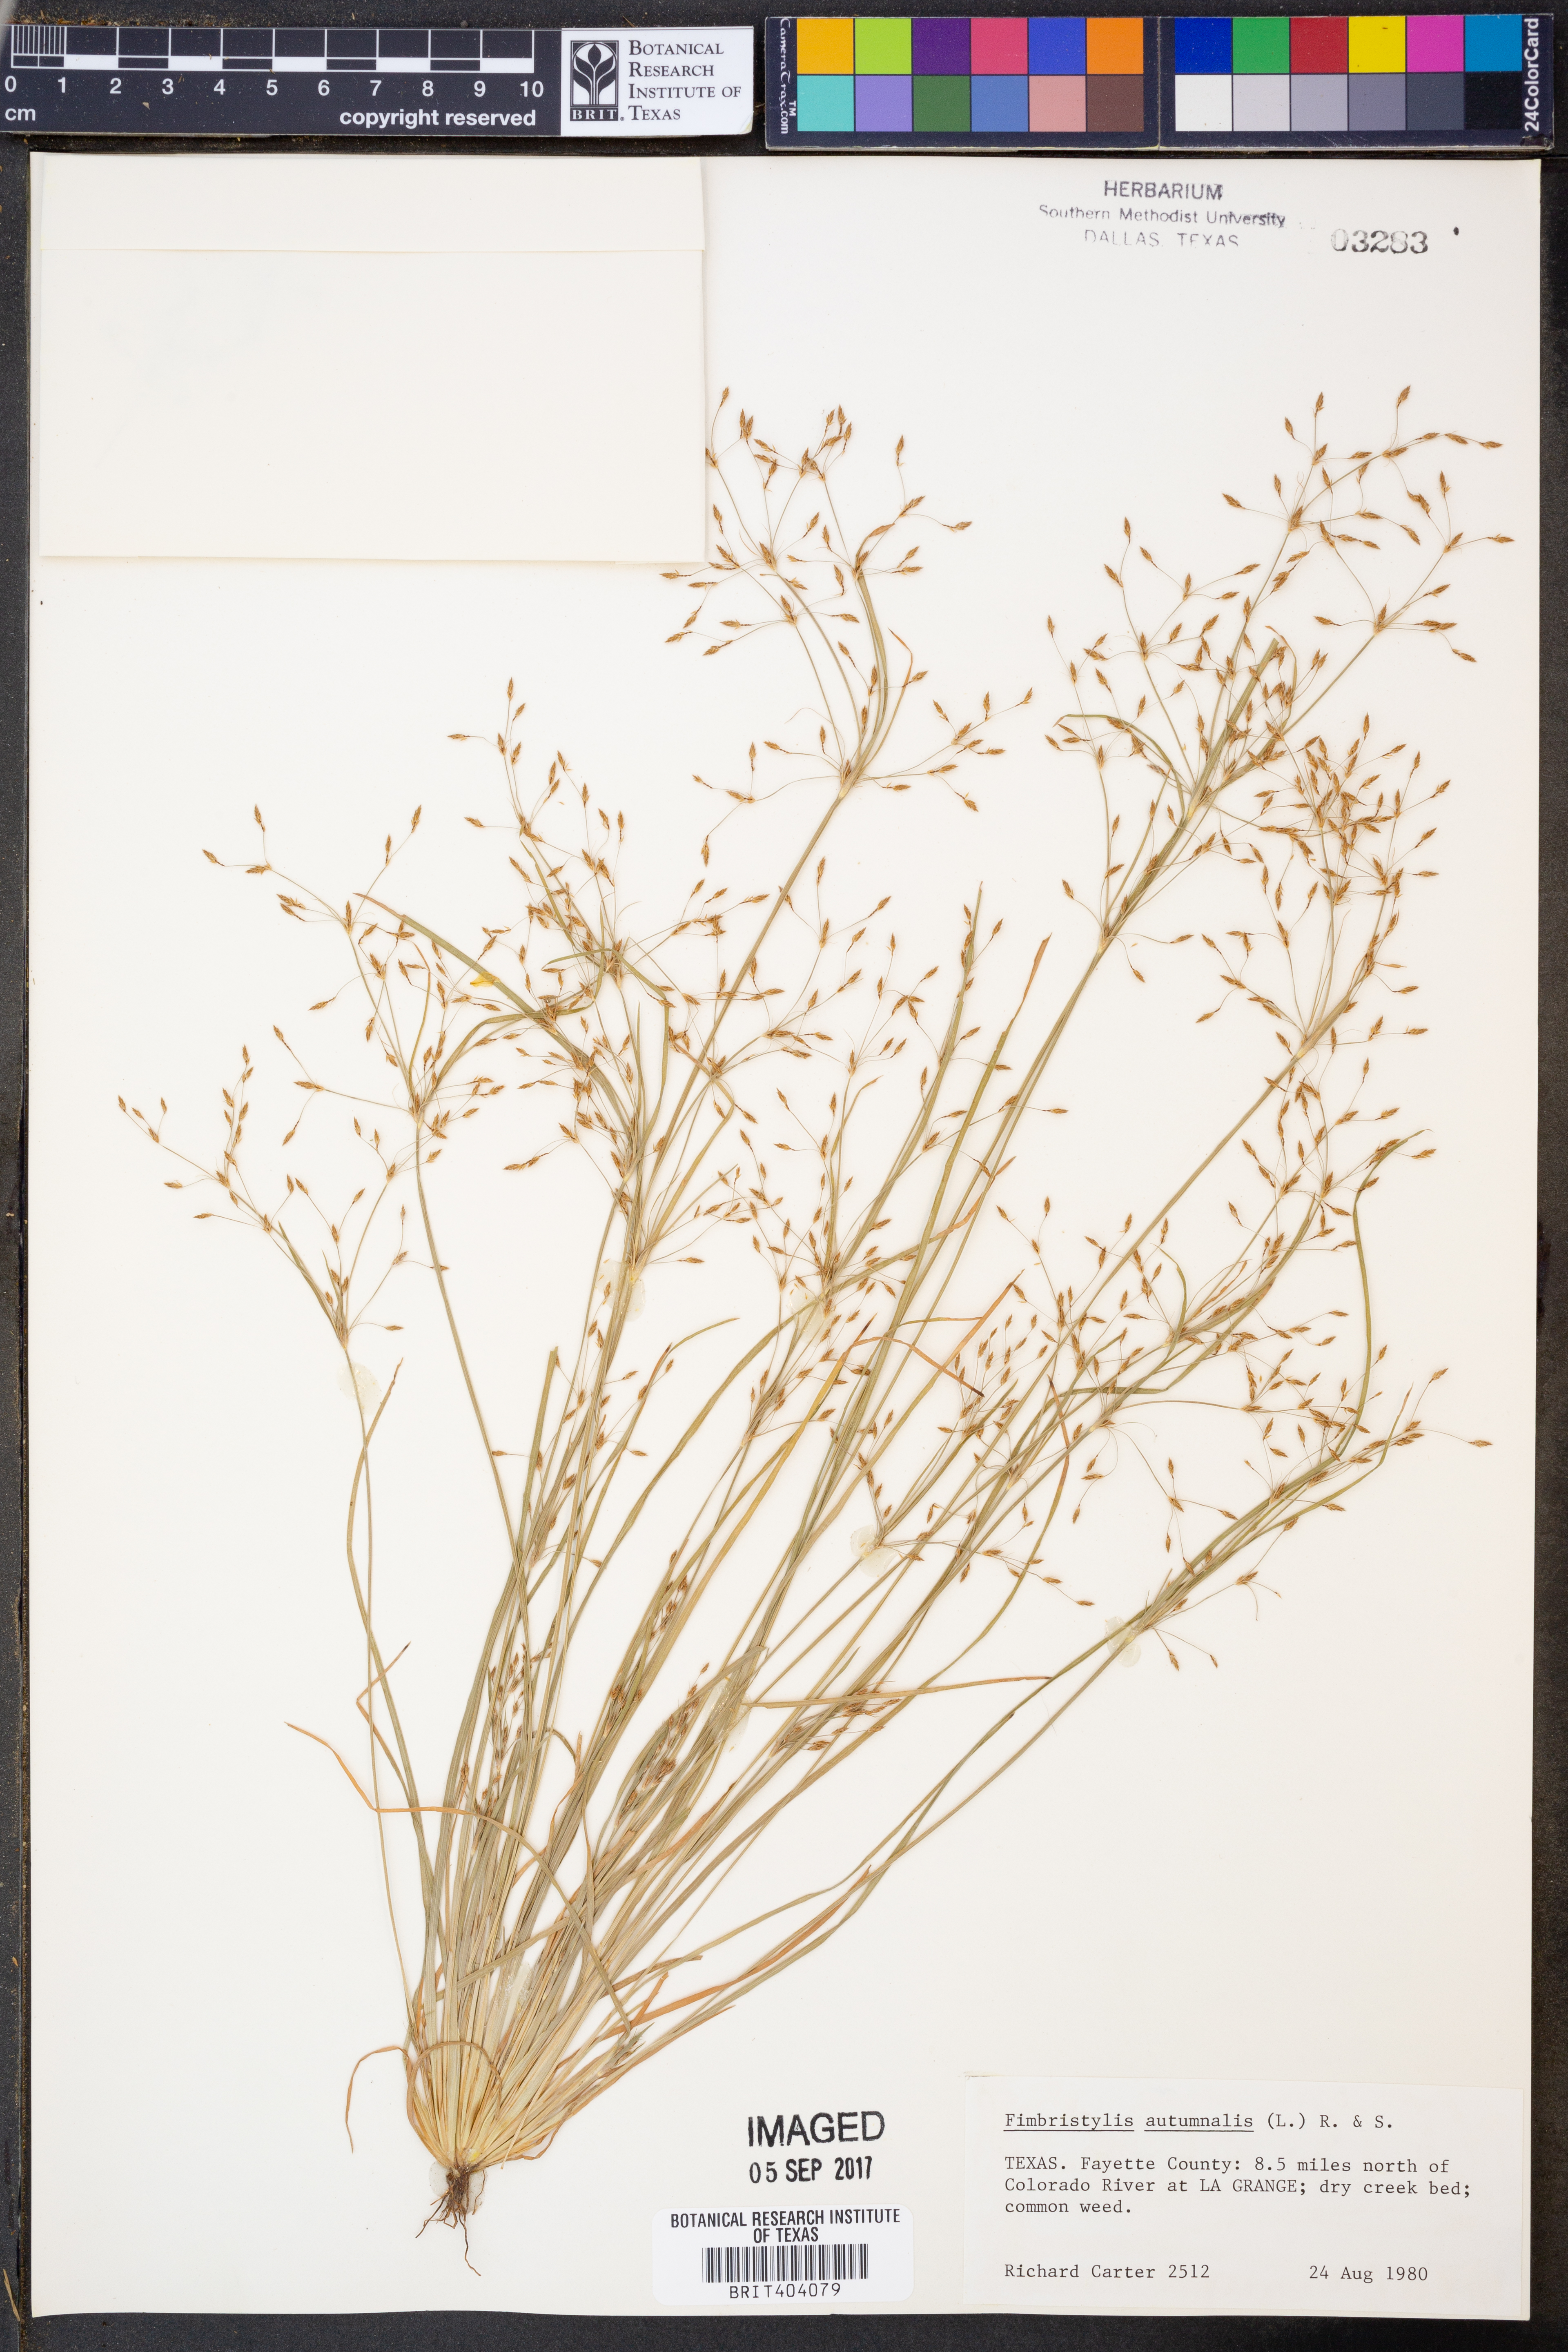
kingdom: Plantae
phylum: Tracheophyta
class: Liliopsida
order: Poales
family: Cyperaceae
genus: Fimbristylis
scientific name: Fimbristylis autumnalis
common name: Slender fimbristylis
